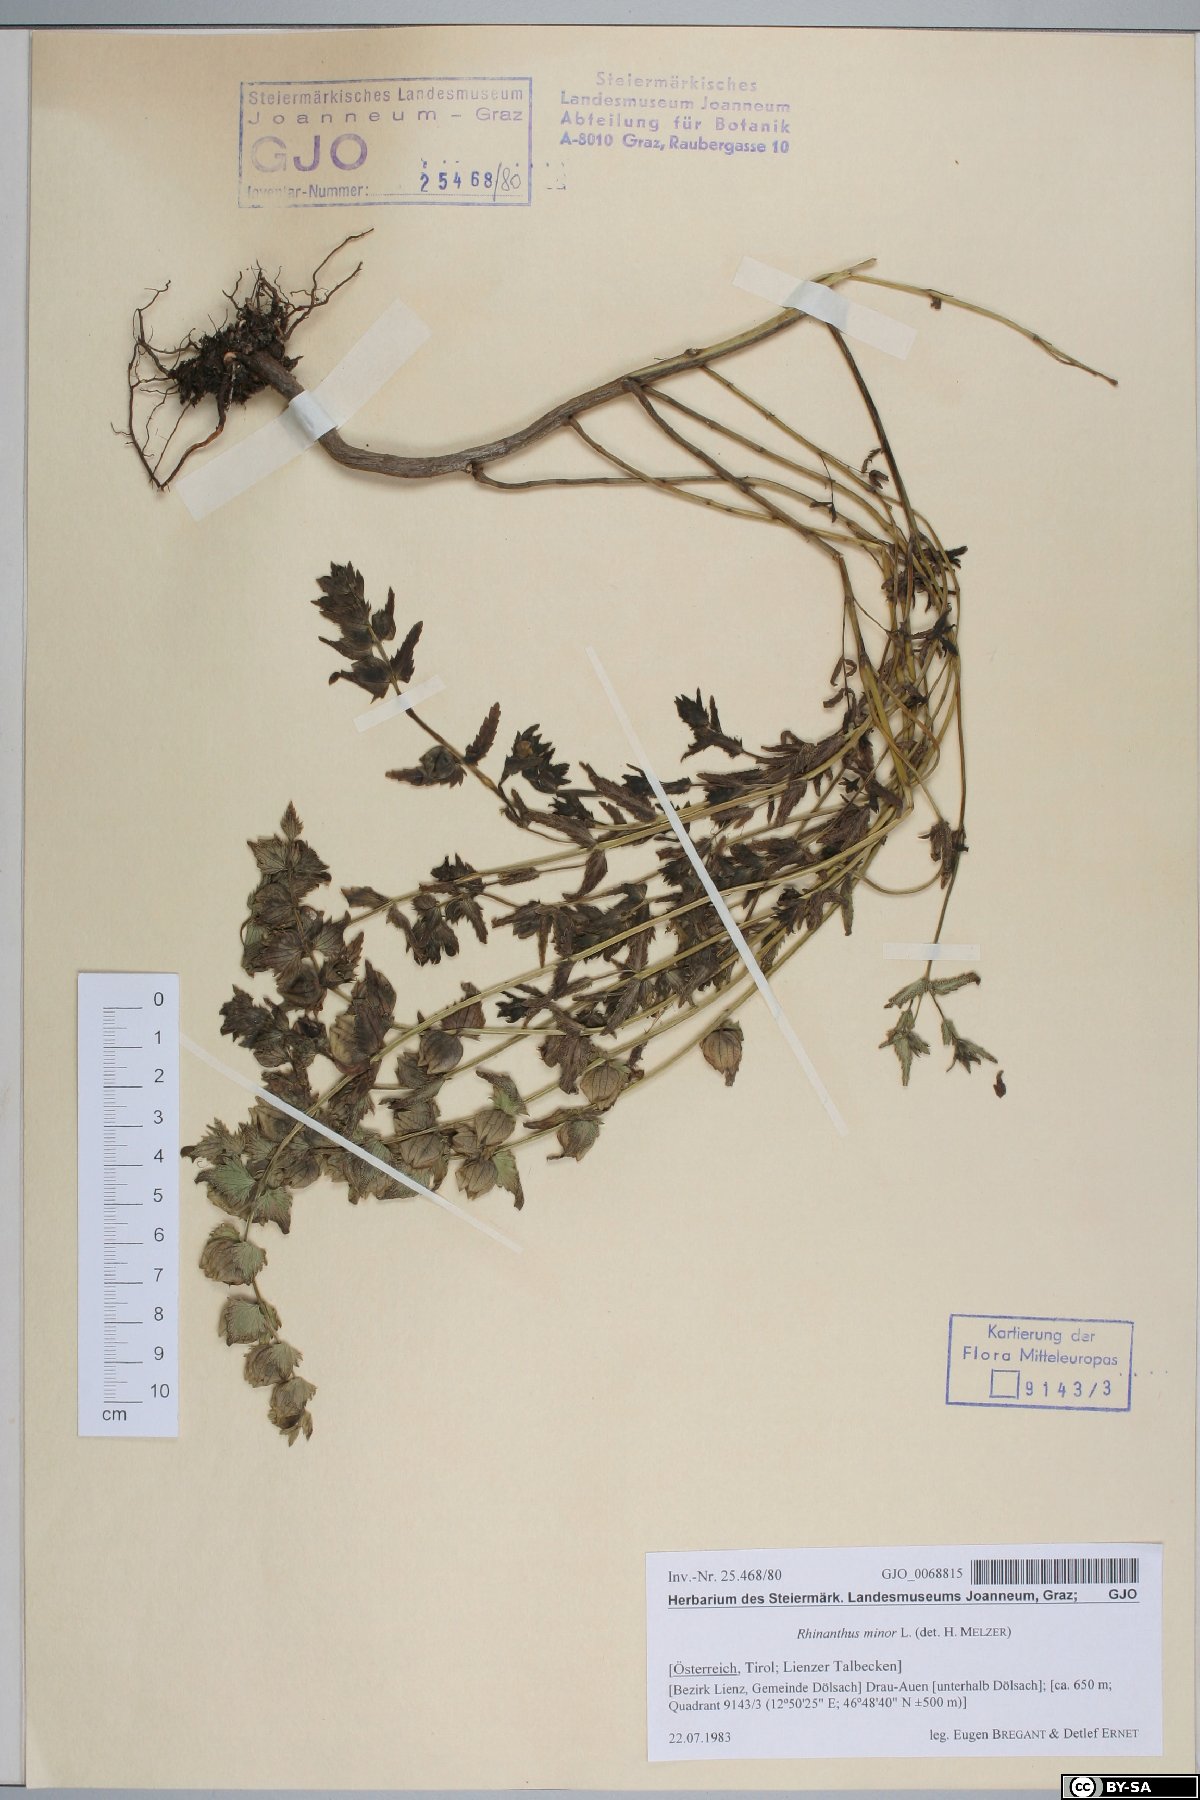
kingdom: Plantae
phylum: Tracheophyta
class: Magnoliopsida
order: Lamiales
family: Orobanchaceae
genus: Rhinanthus
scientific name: Rhinanthus minor
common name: Yellow-rattle
